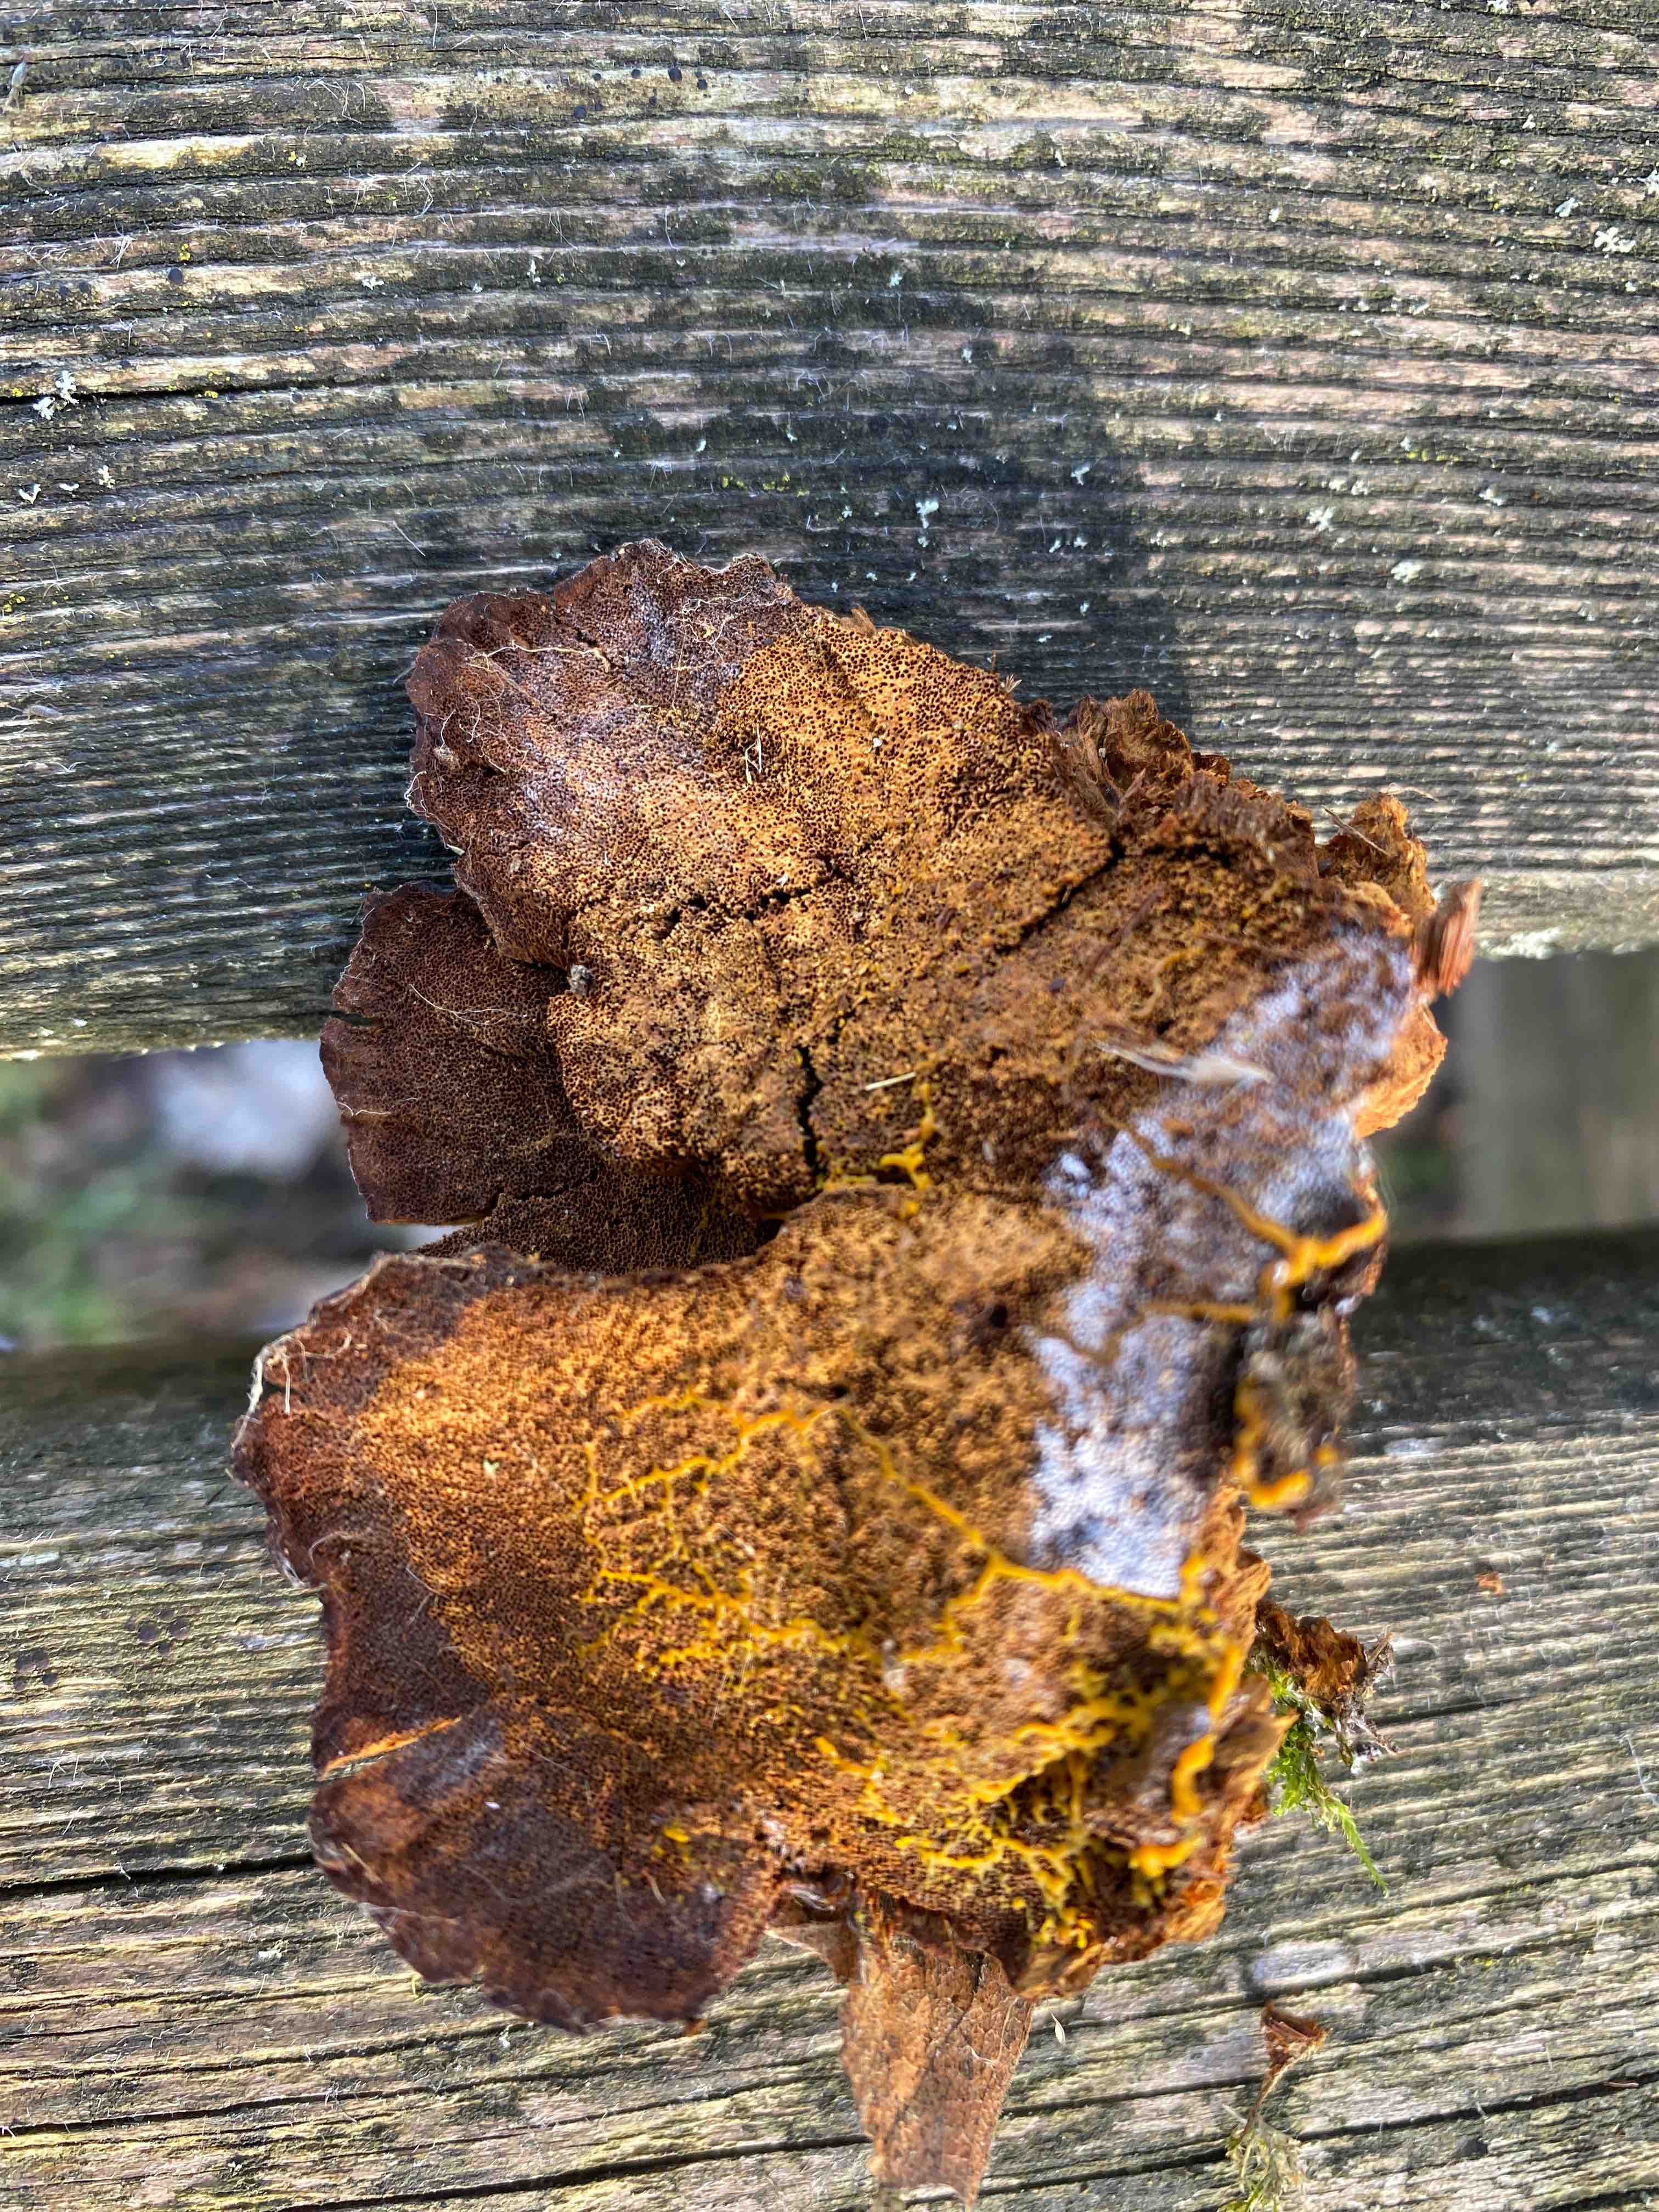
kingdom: Fungi
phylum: Basidiomycota
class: Agaricomycetes
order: Hymenochaetales
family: Hymenochaetaceae
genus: Xanthoporia
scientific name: Xanthoporia radiata
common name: elle-spejlporesvamp
